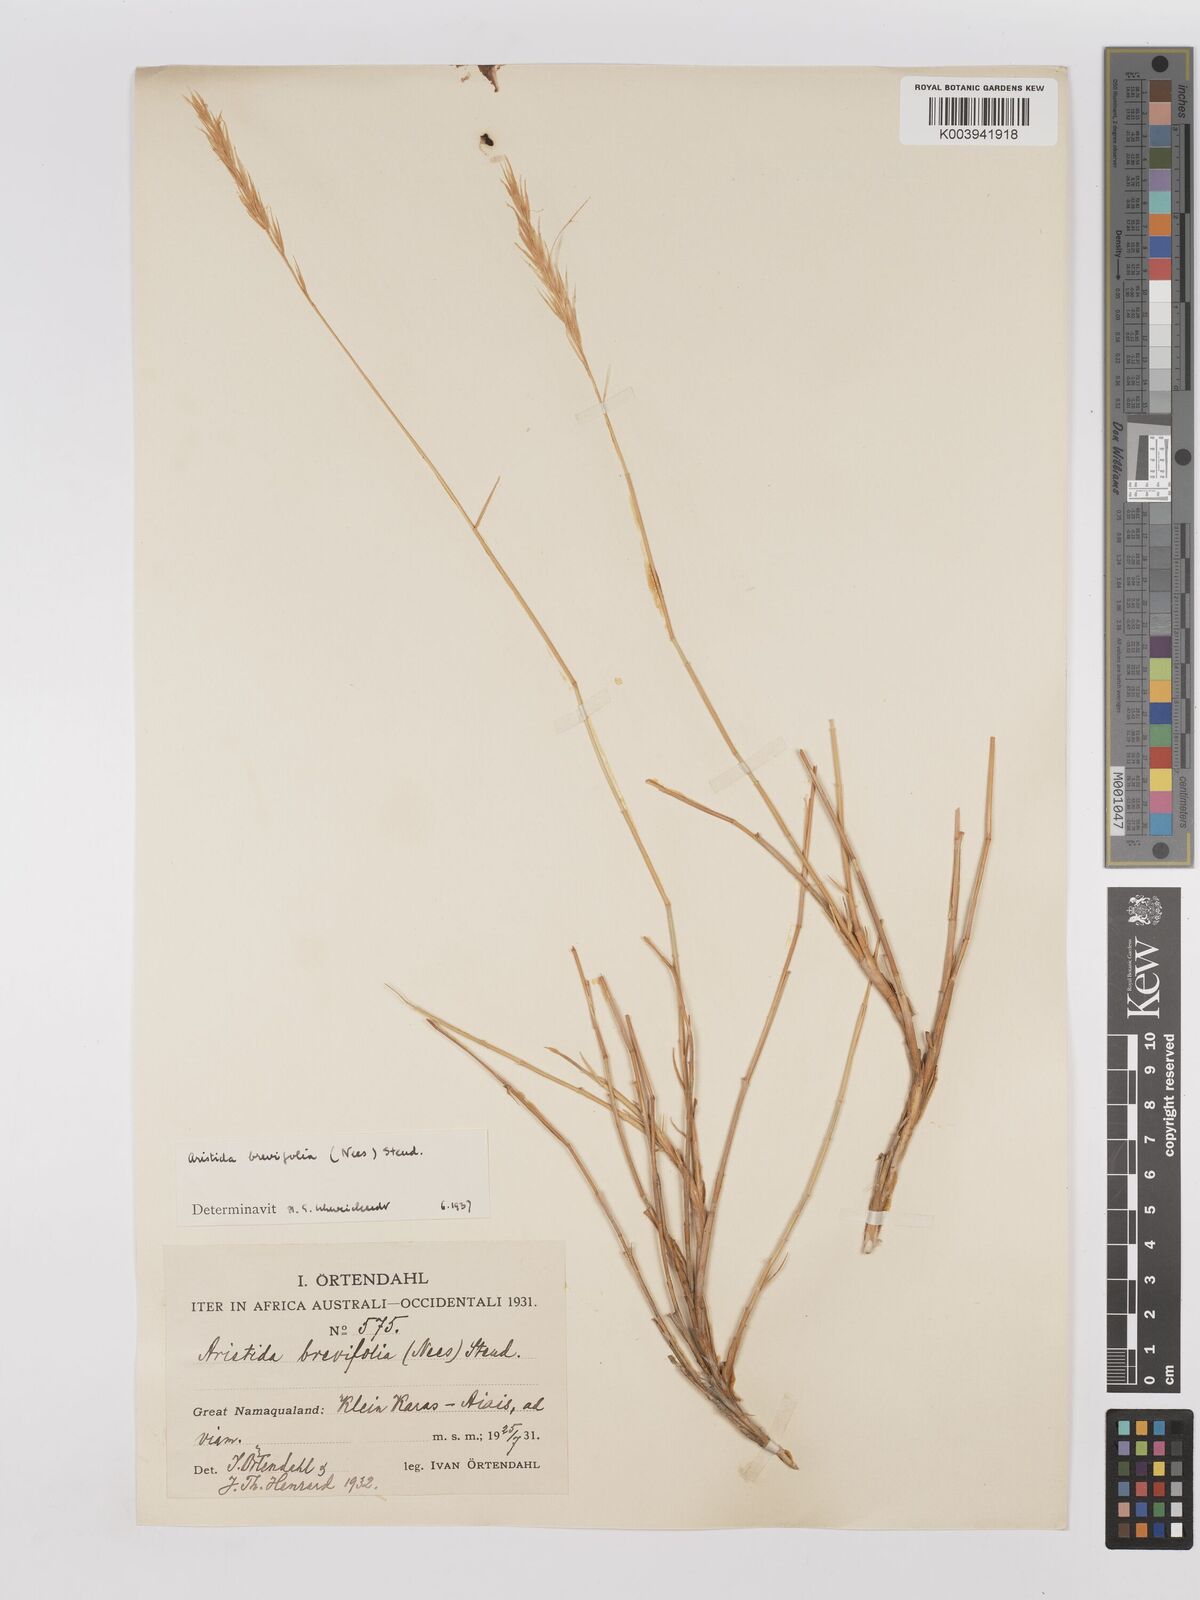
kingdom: Plantae
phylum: Tracheophyta
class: Liliopsida
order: Poales
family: Poaceae
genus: Stipagrostis
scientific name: Stipagrostis brevifolia
